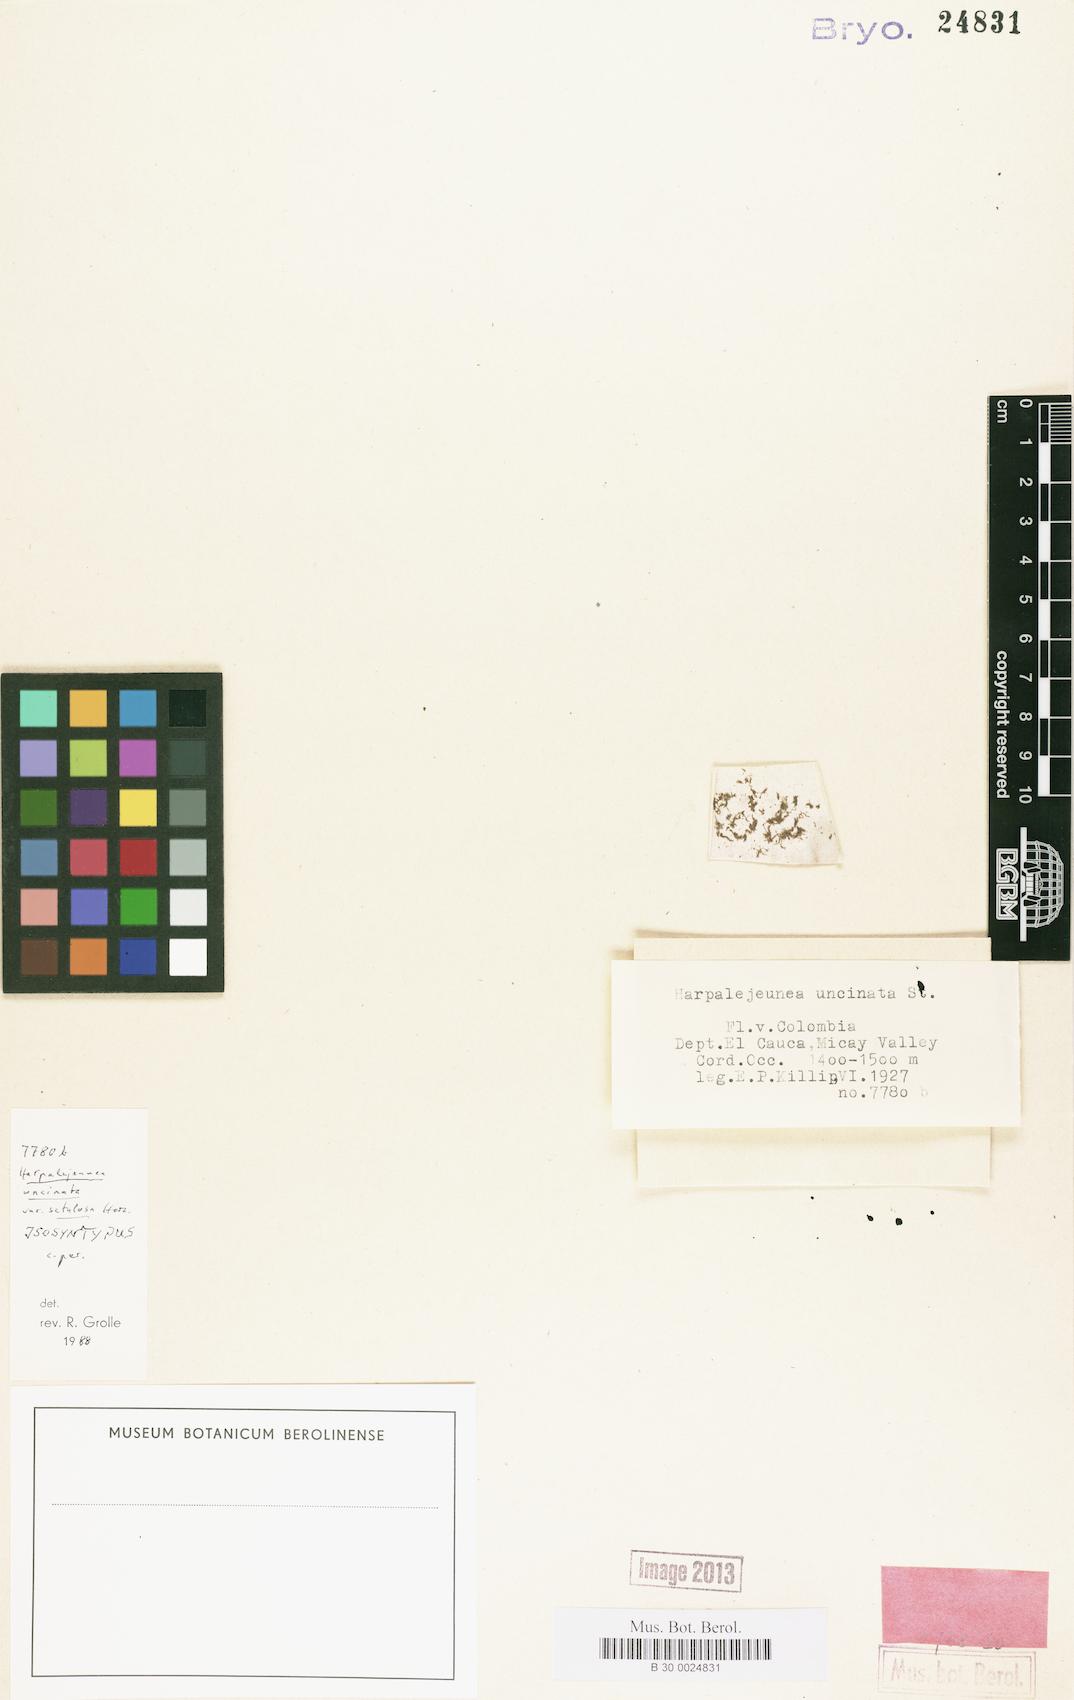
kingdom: Plantae
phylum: Marchantiophyta
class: Jungermanniopsida
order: Porellales
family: Lejeuneaceae
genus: Harpalejeunea
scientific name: Harpalejeunea uncinata
